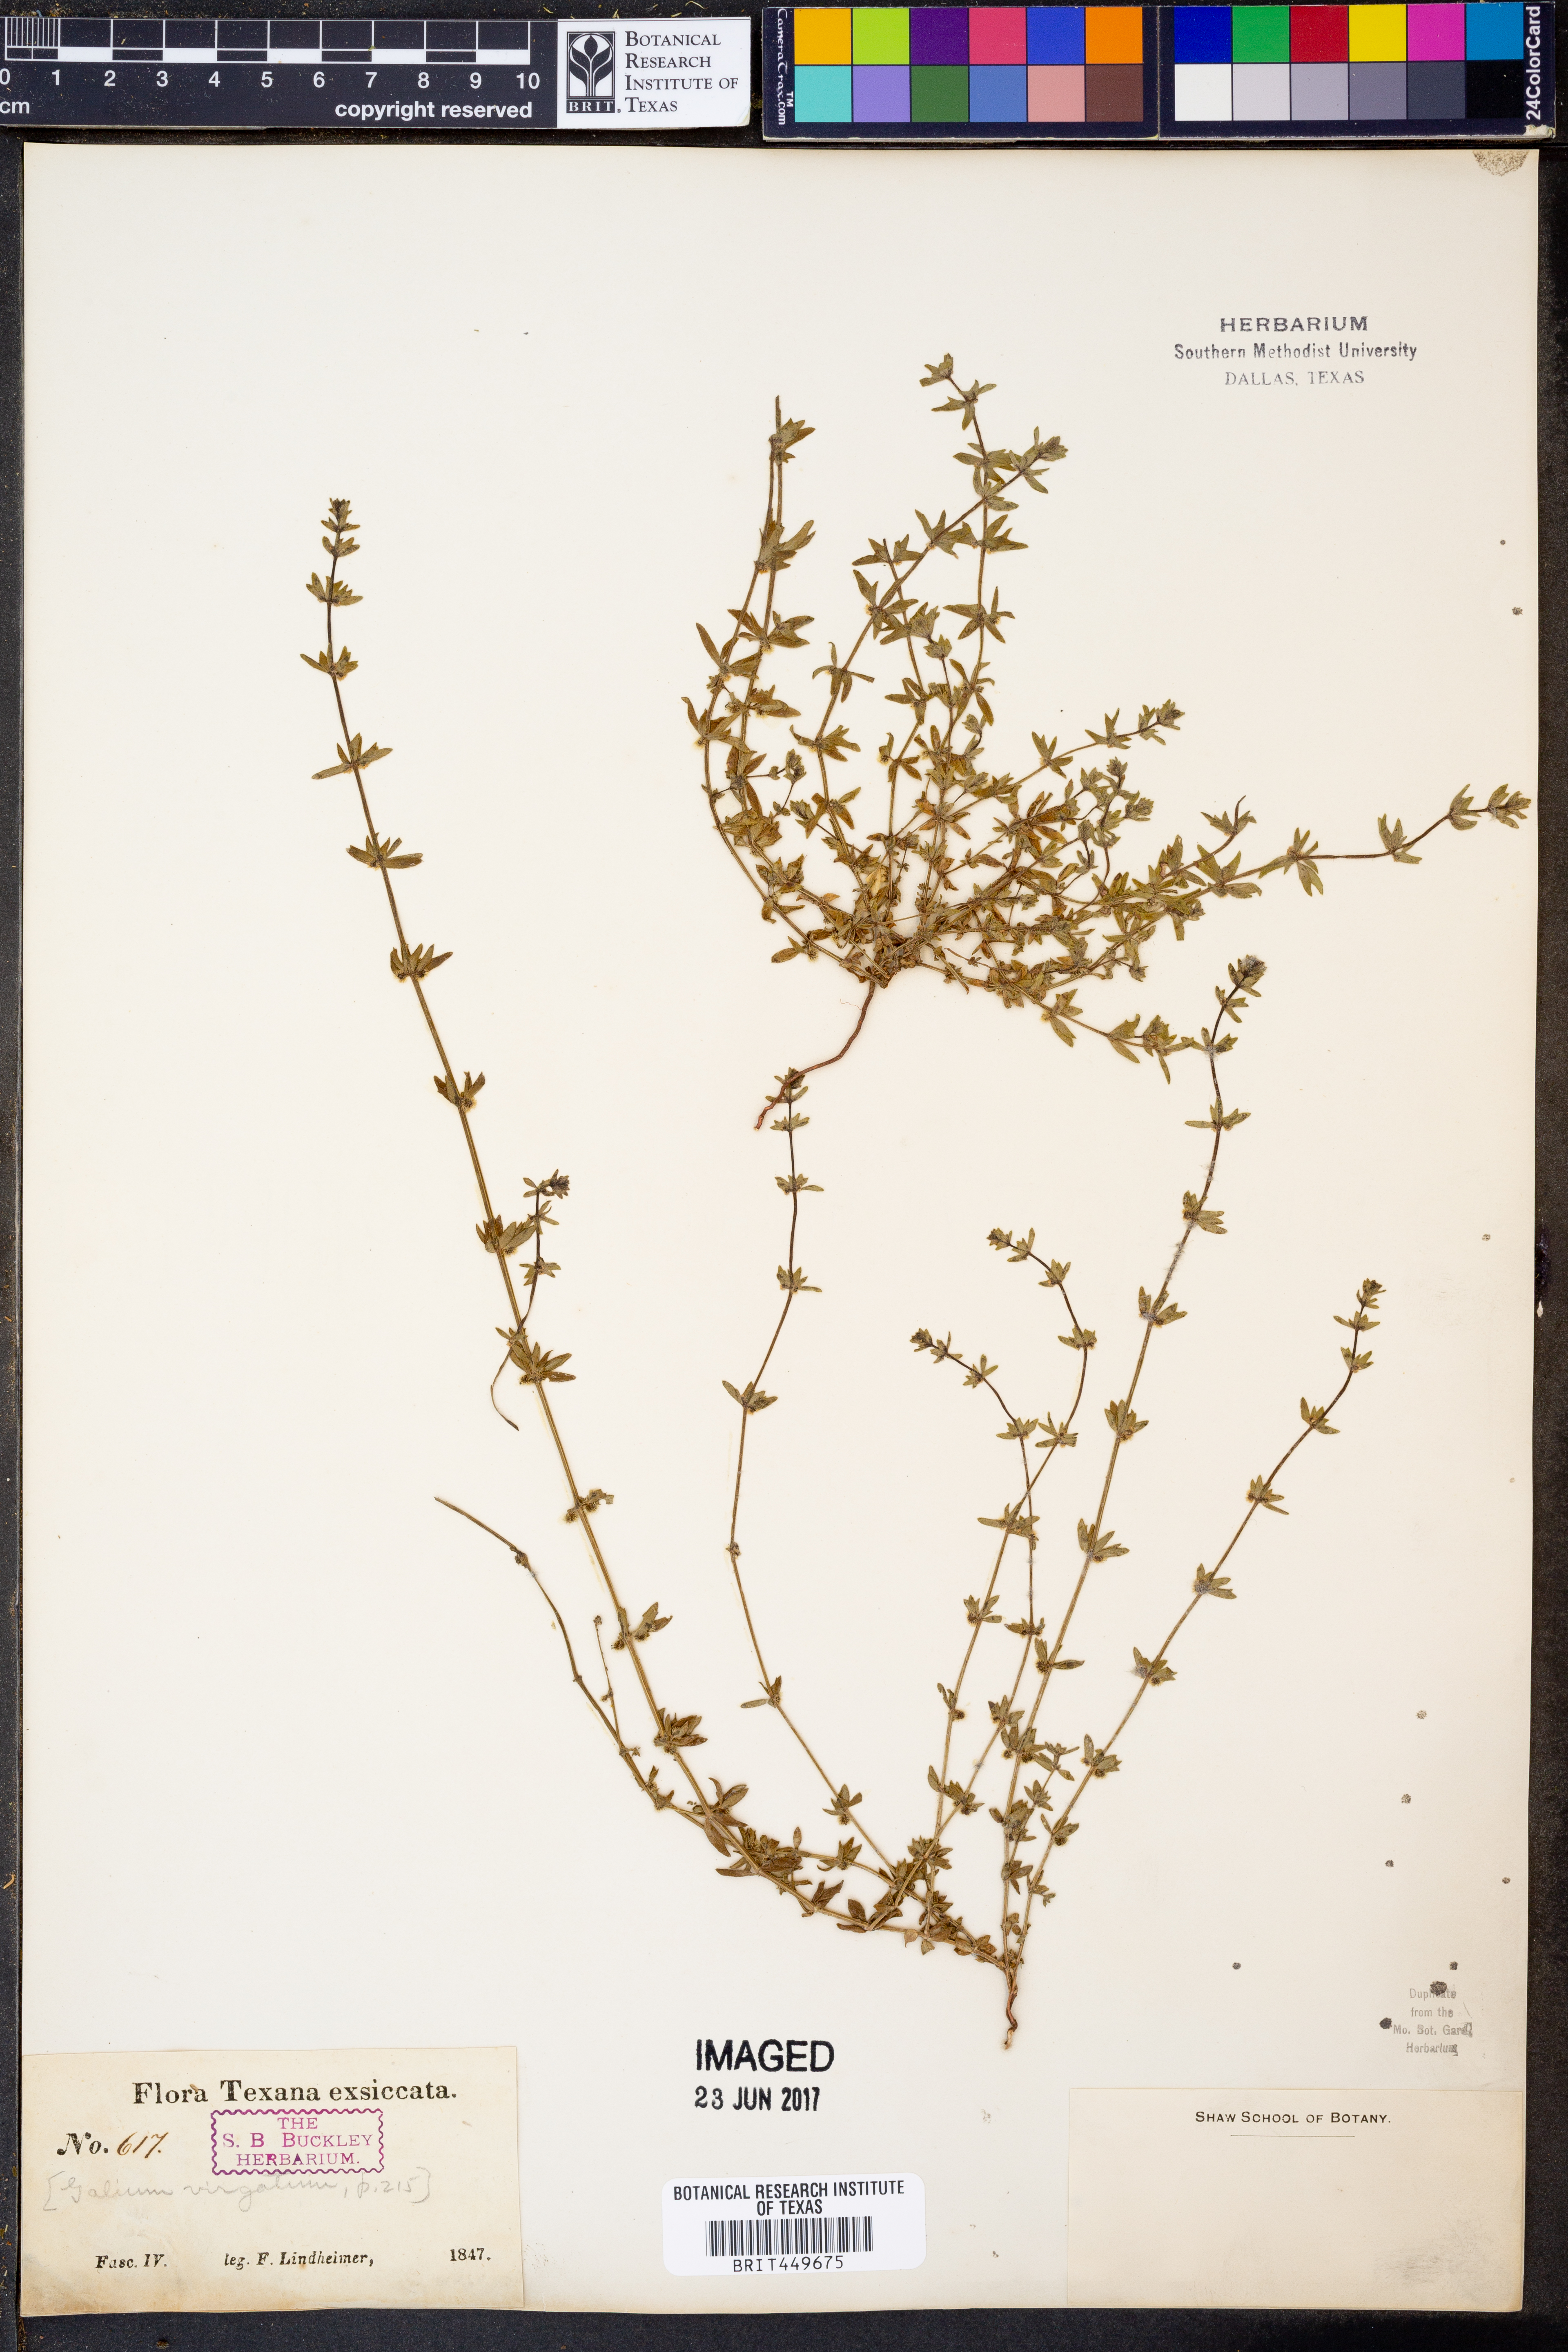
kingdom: Plantae
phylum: Tracheophyta
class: Magnoliopsida
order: Gentianales
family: Rubiaceae
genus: Galium
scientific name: Galium virgatum
